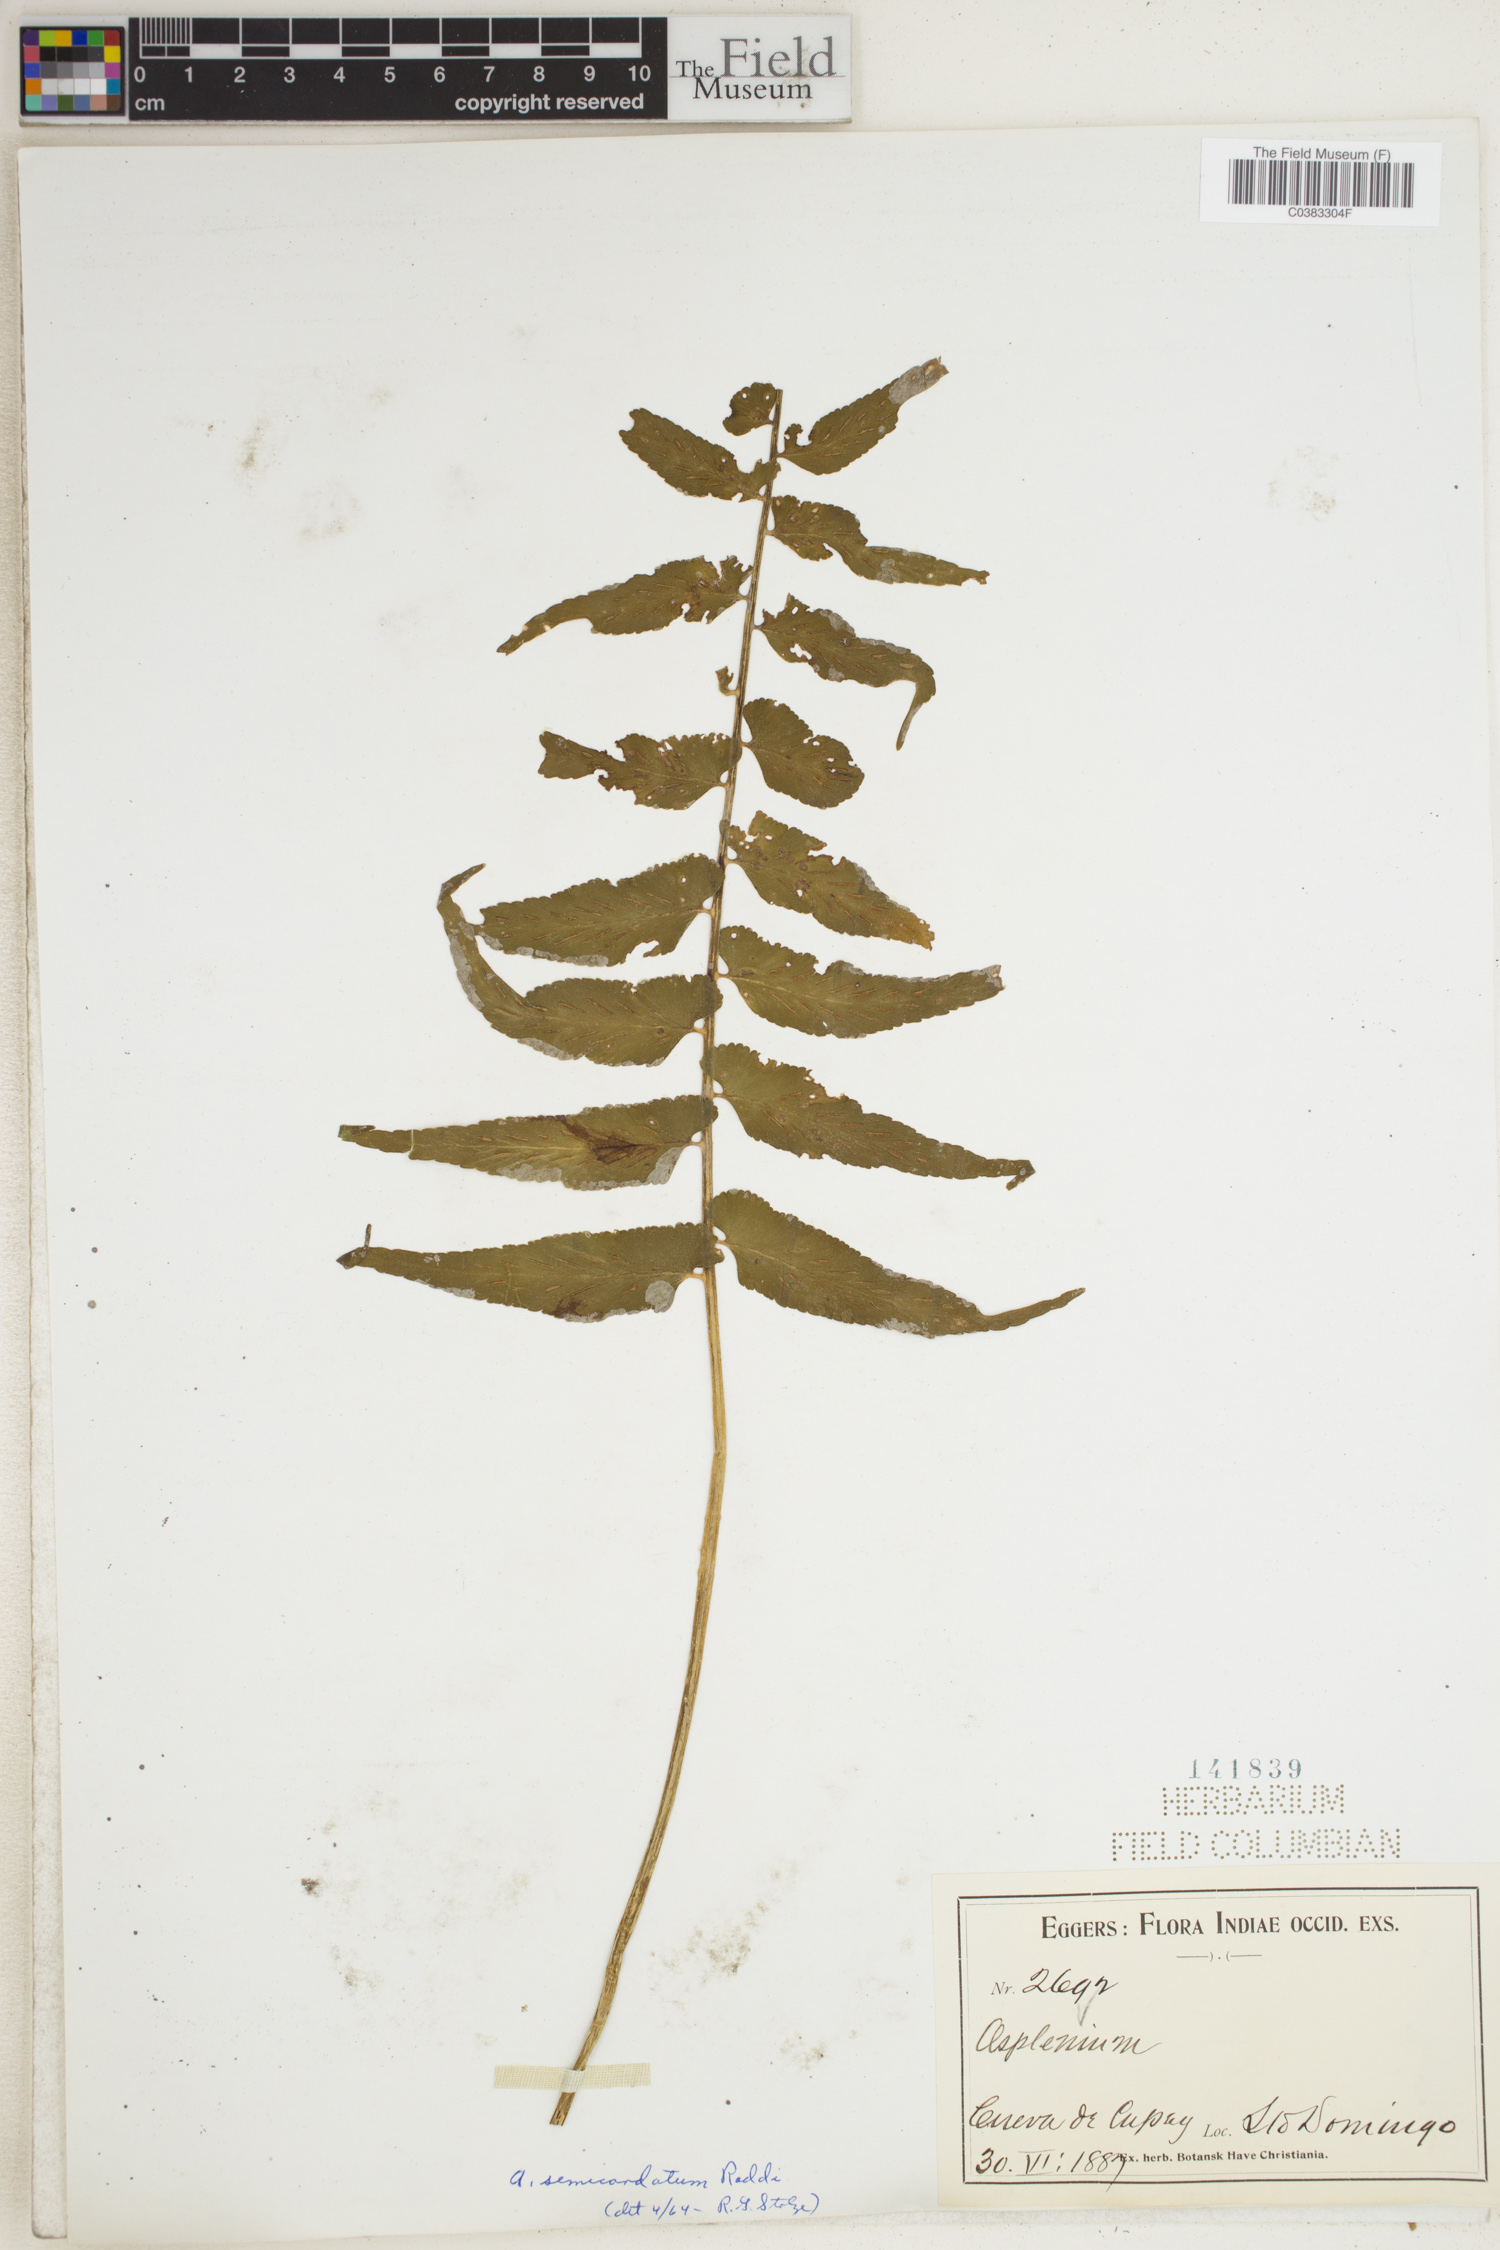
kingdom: Plantae
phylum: Tracheophyta
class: Polypodiopsida
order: Polypodiales
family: Aspleniaceae
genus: Asplenium
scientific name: Asplenium auriculatum
